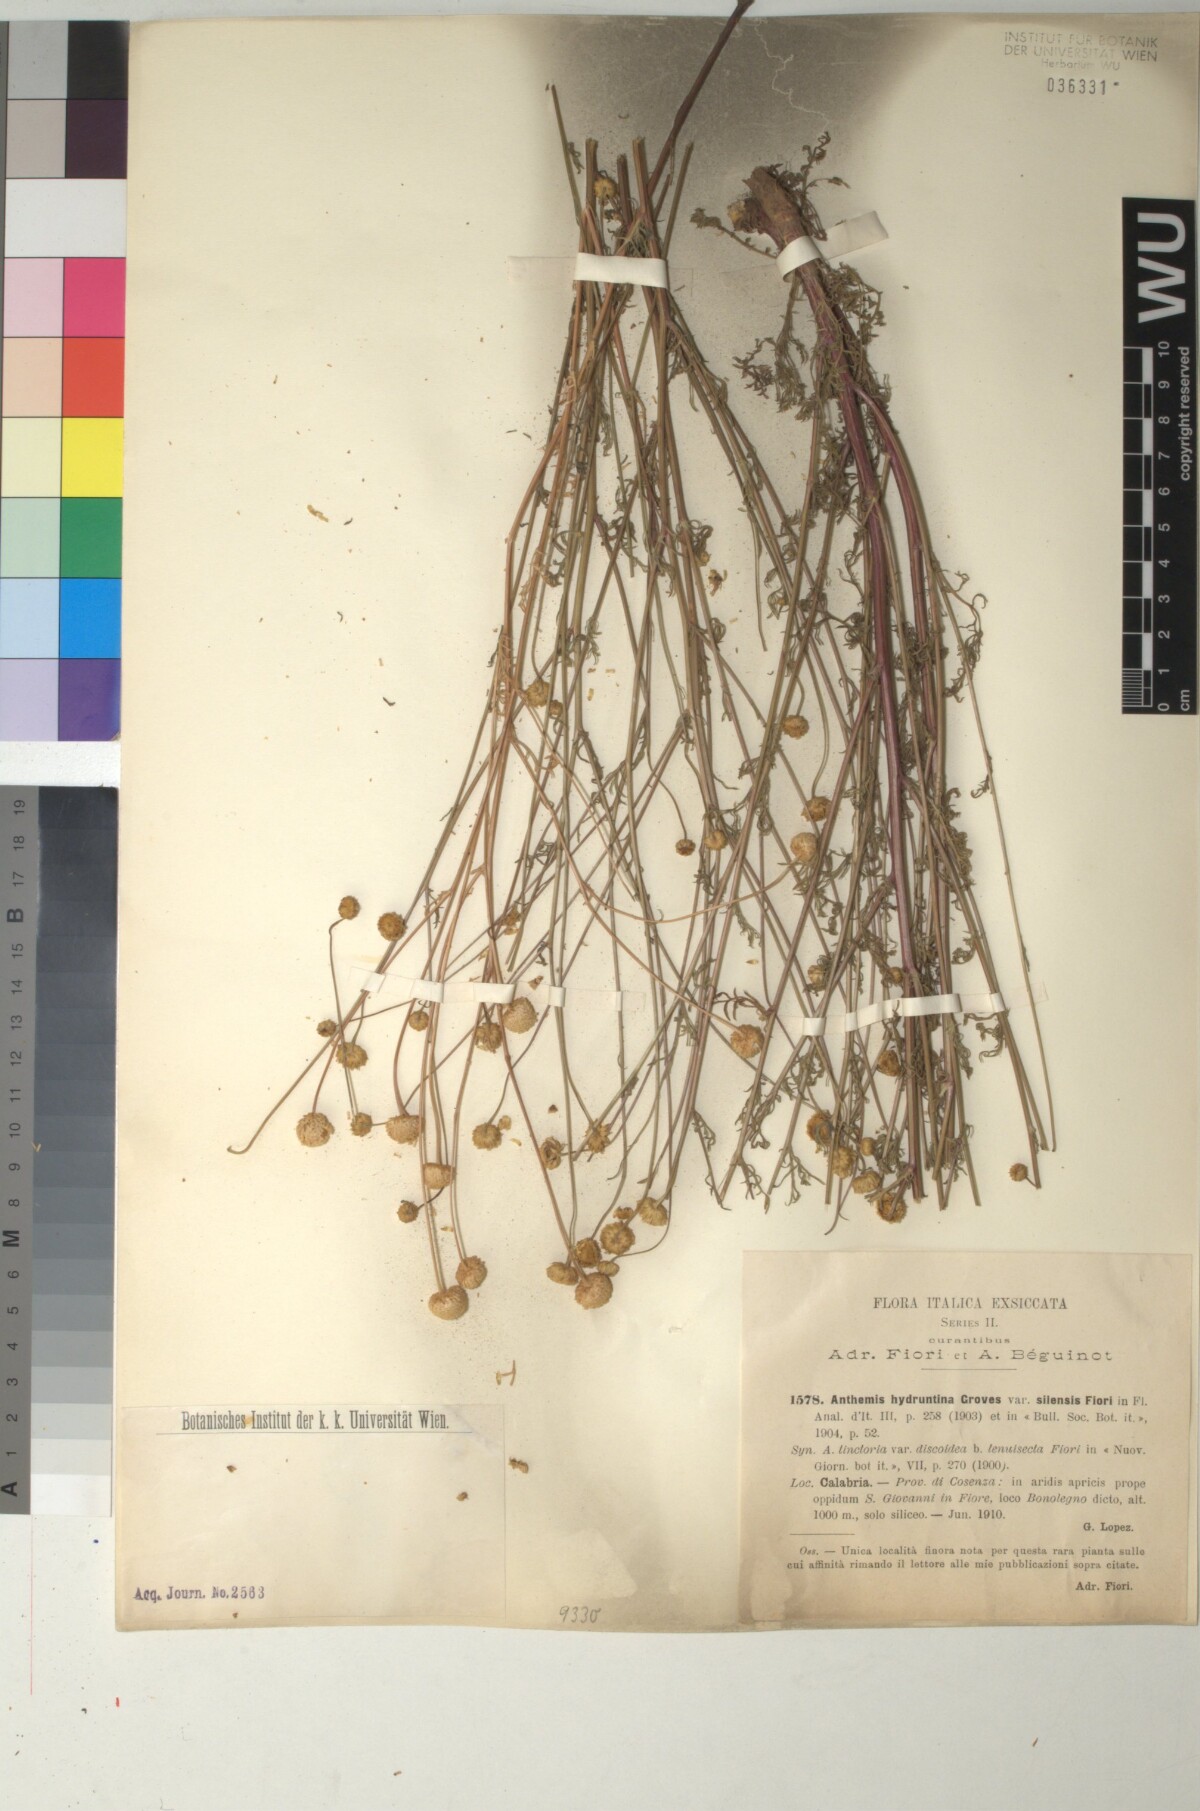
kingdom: Plantae
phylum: Tracheophyta
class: Magnoliopsida
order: Asterales
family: Asteraceae
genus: Anthemis
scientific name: Anthemis hydruntina
